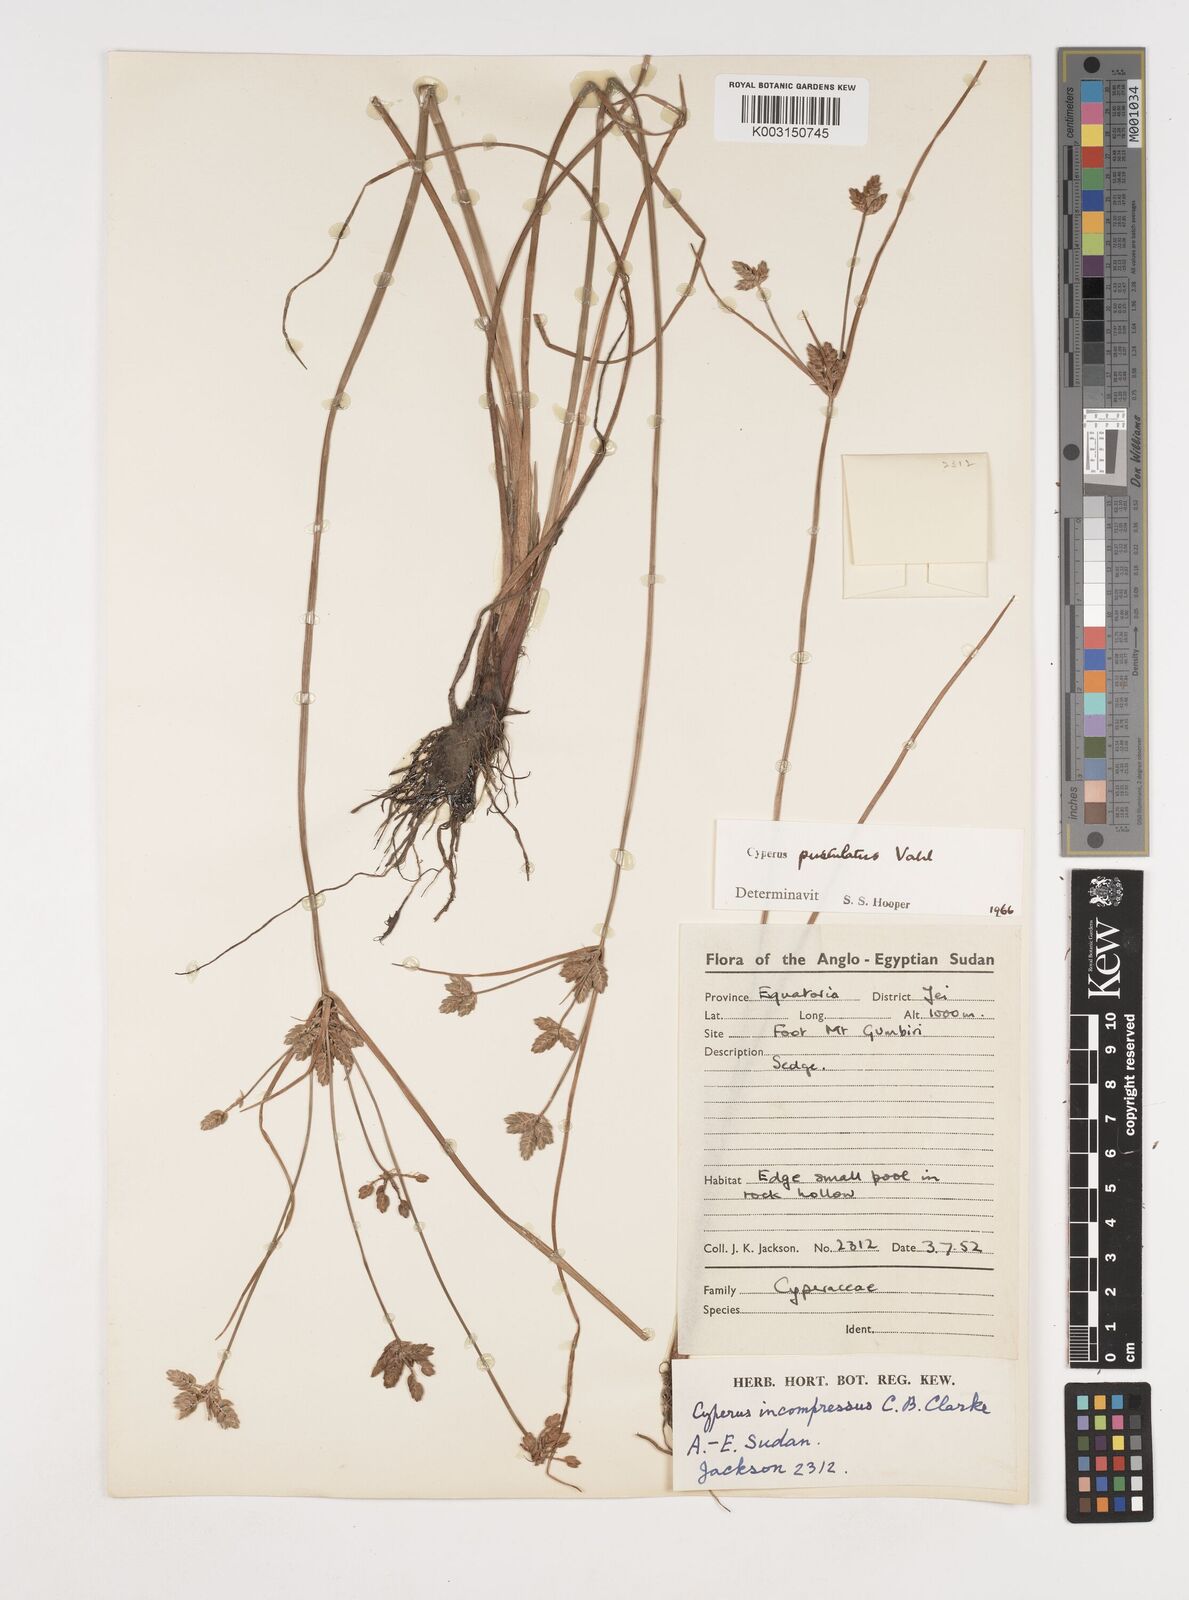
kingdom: Plantae
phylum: Tracheophyta
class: Liliopsida
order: Poales
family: Cyperaceae
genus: Cyperus
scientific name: Cyperus pustulatus
